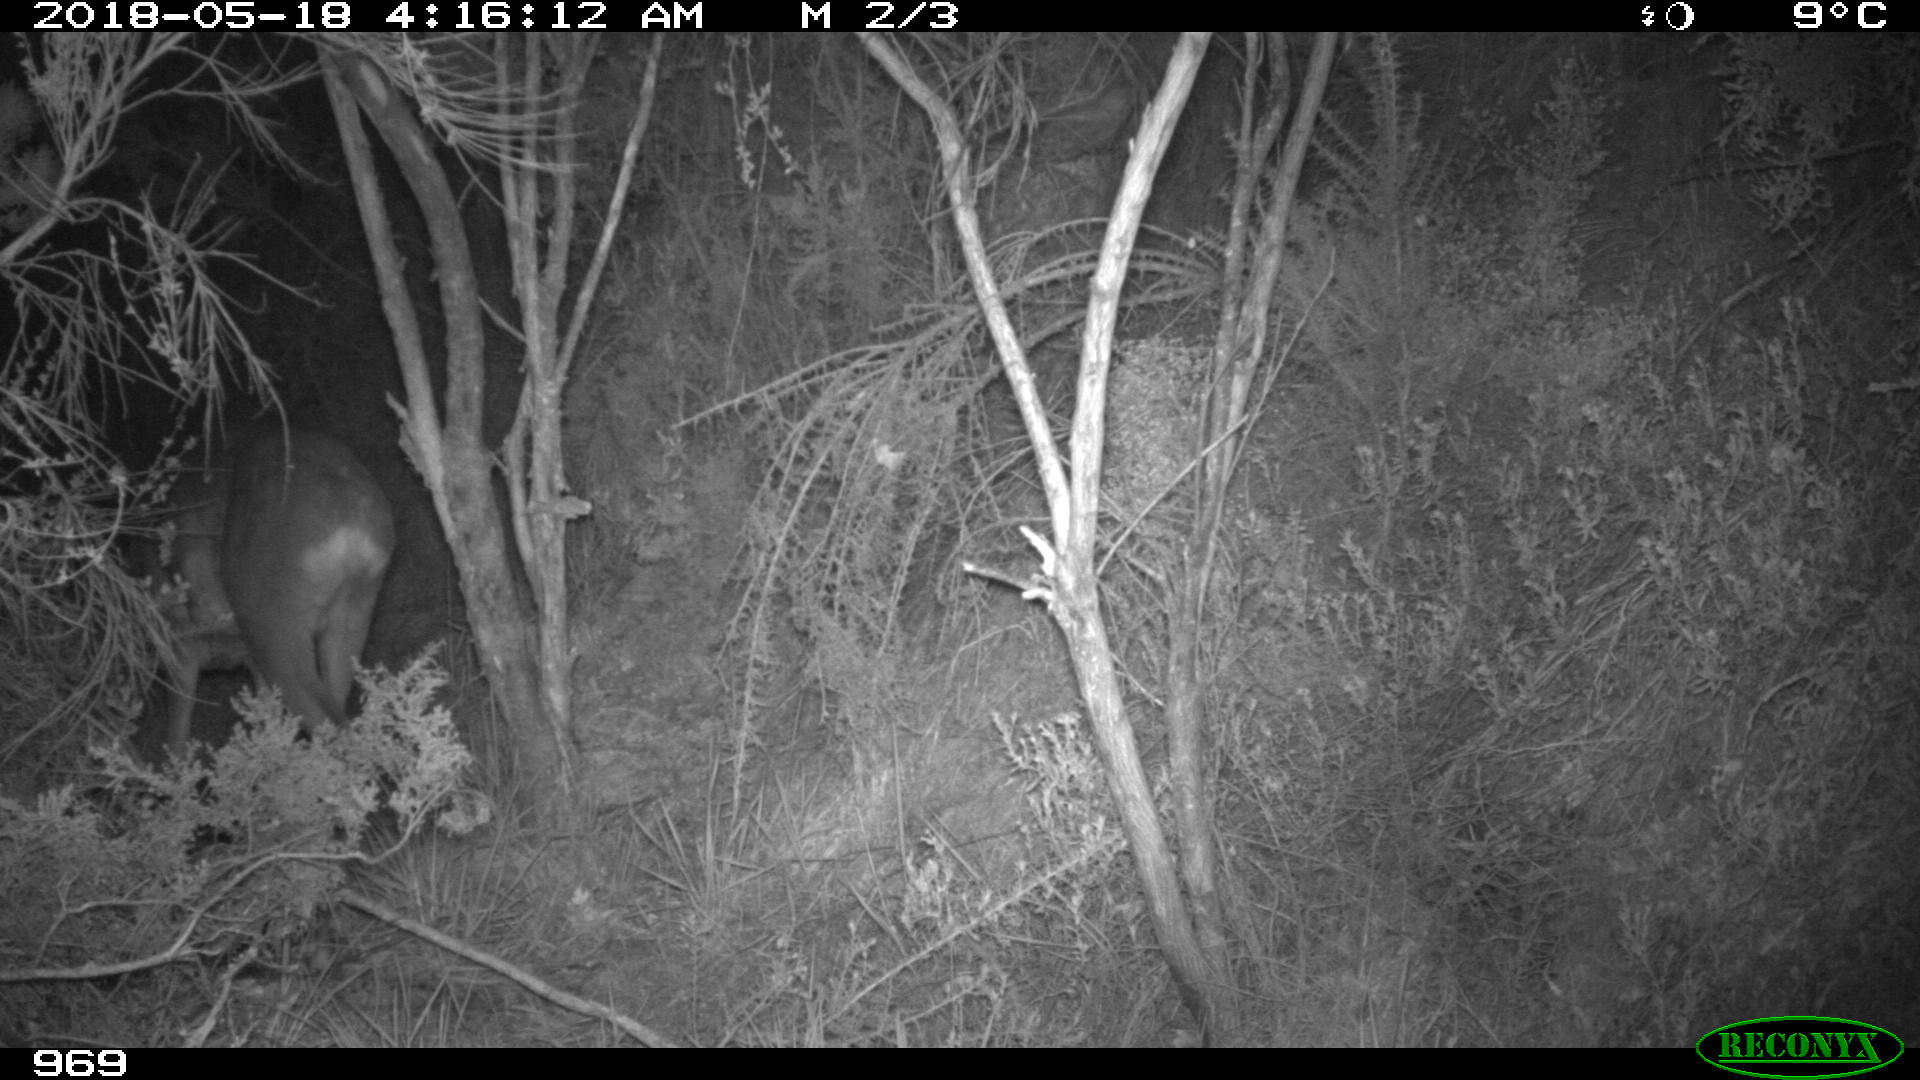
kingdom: Animalia
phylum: Chordata
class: Mammalia
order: Artiodactyla
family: Cervidae
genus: Capreolus
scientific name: Capreolus capreolus
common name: Western roe deer
